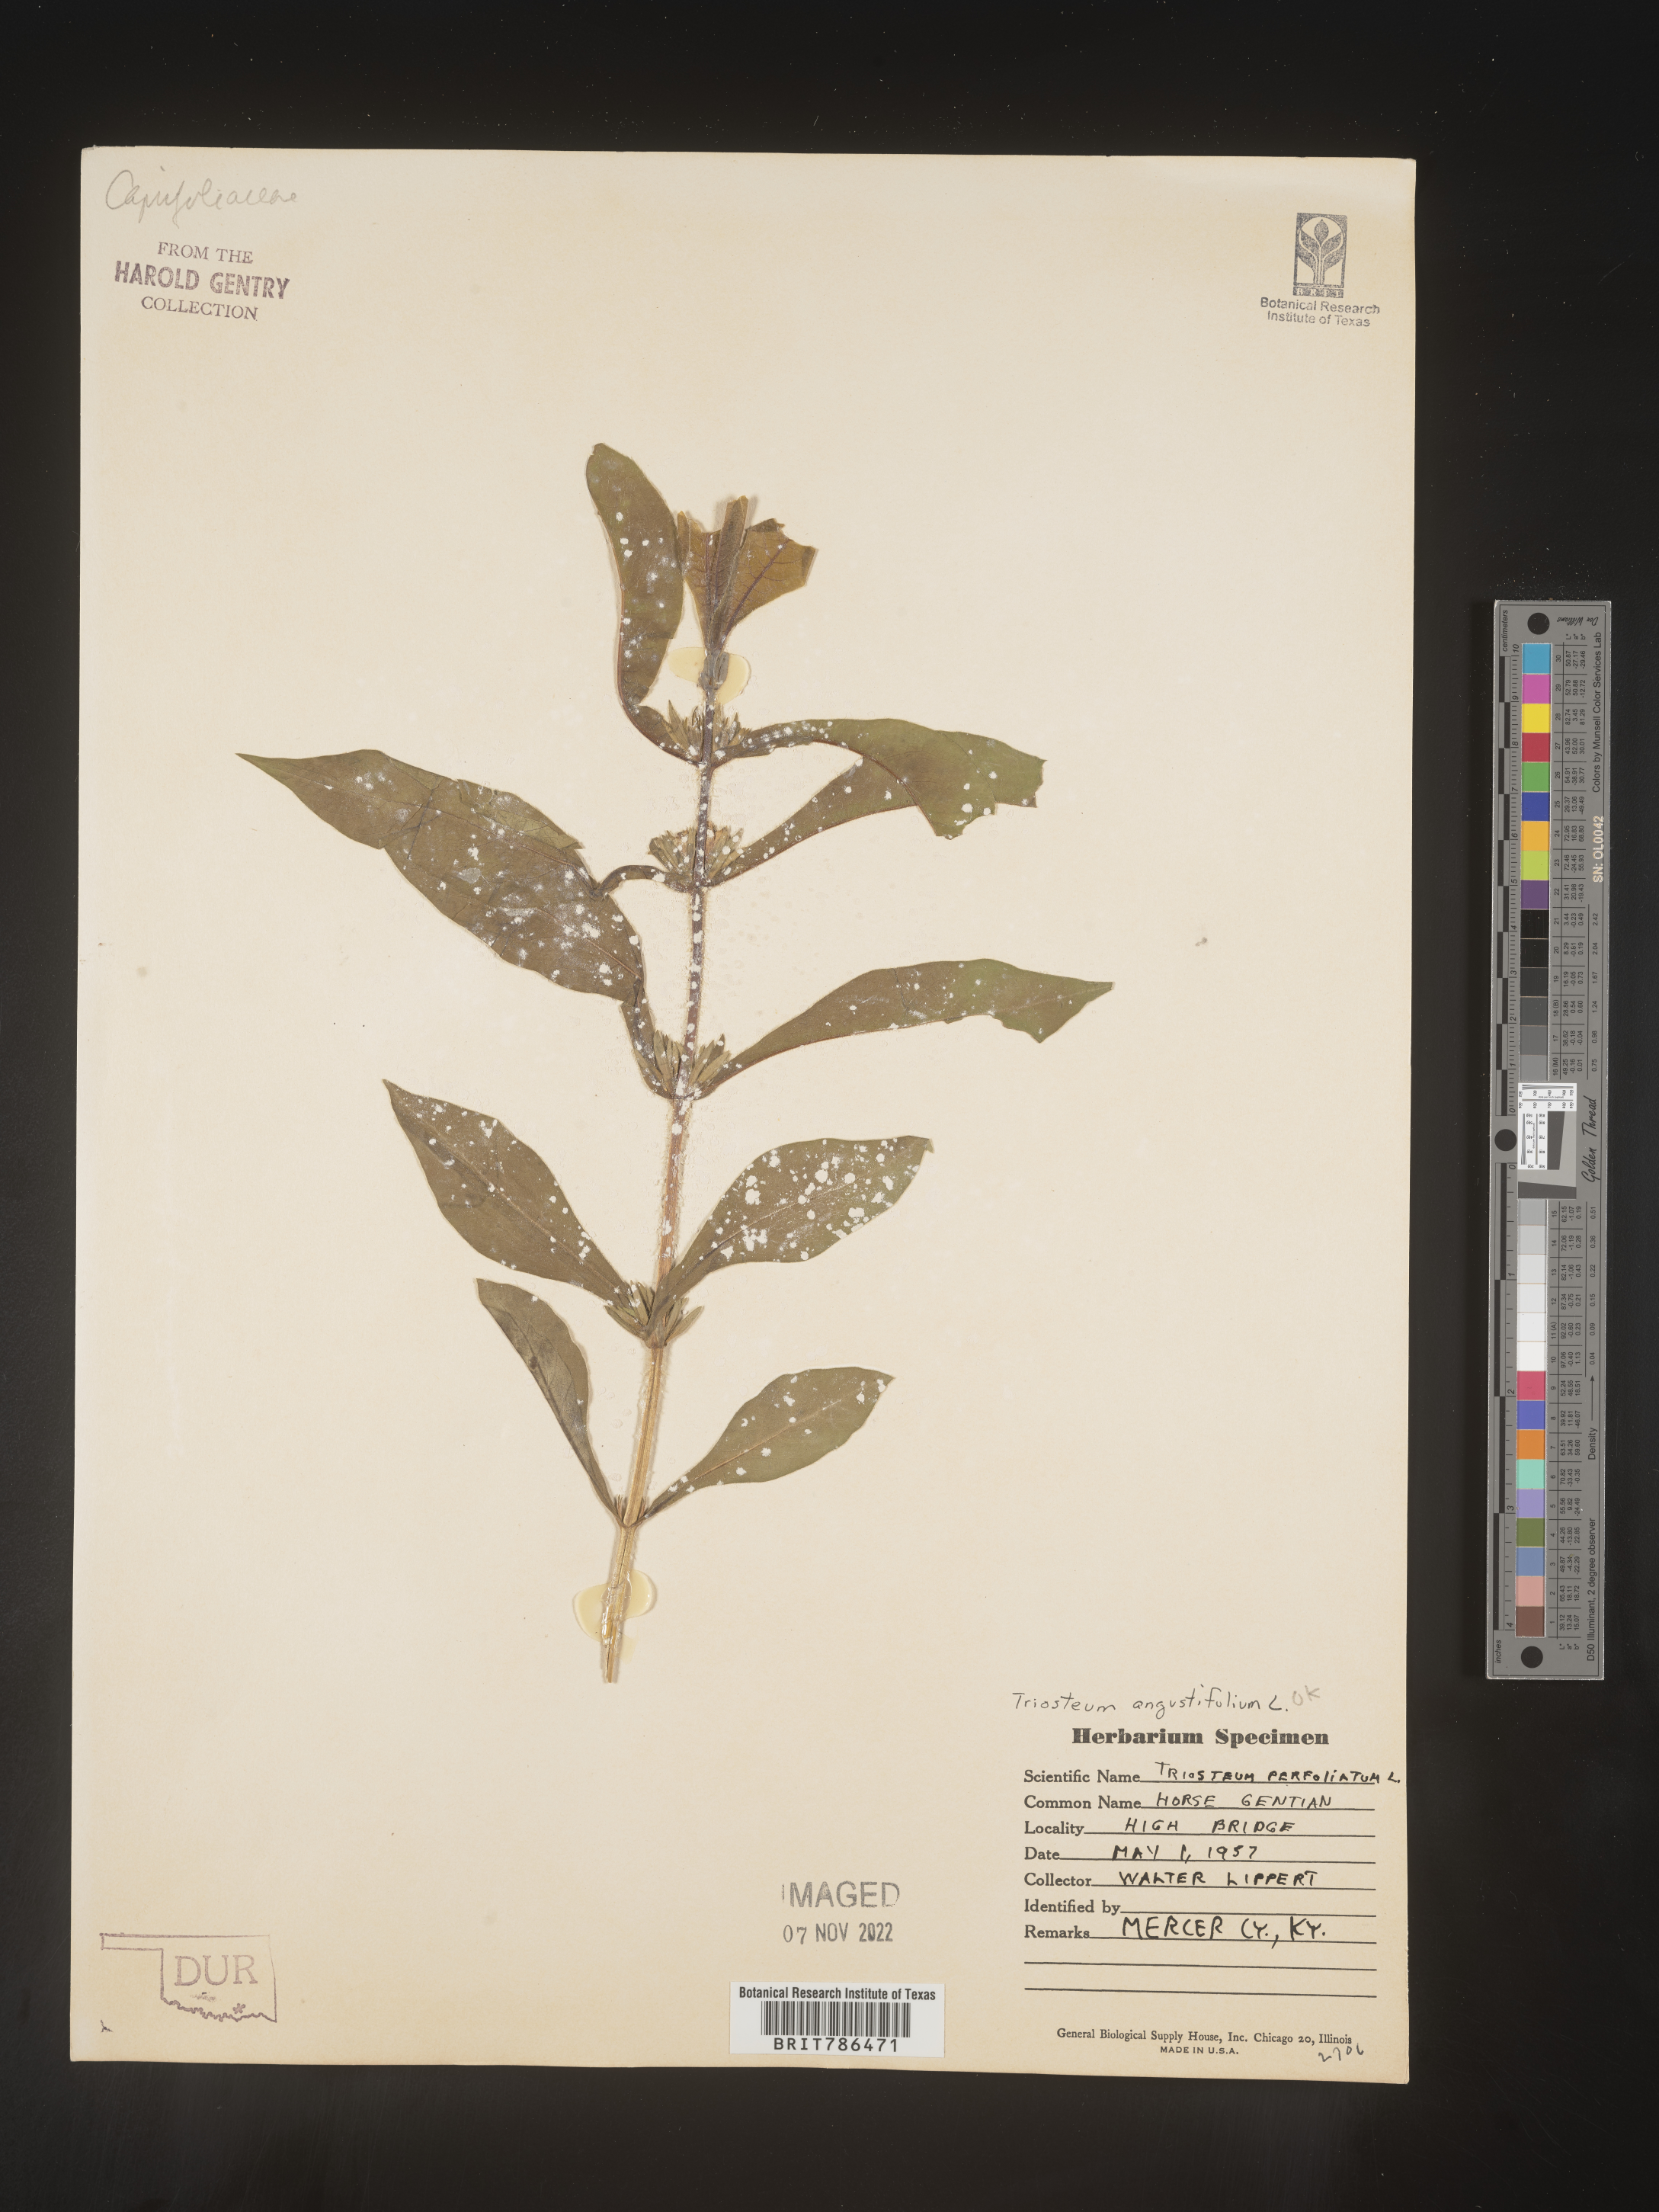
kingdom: Plantae
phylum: Tracheophyta
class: Magnoliopsida
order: Dipsacales
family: Caprifoliaceae
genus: Triosteum
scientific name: Triosteum angustifolium
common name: Narrow-leaved horse-gentian
